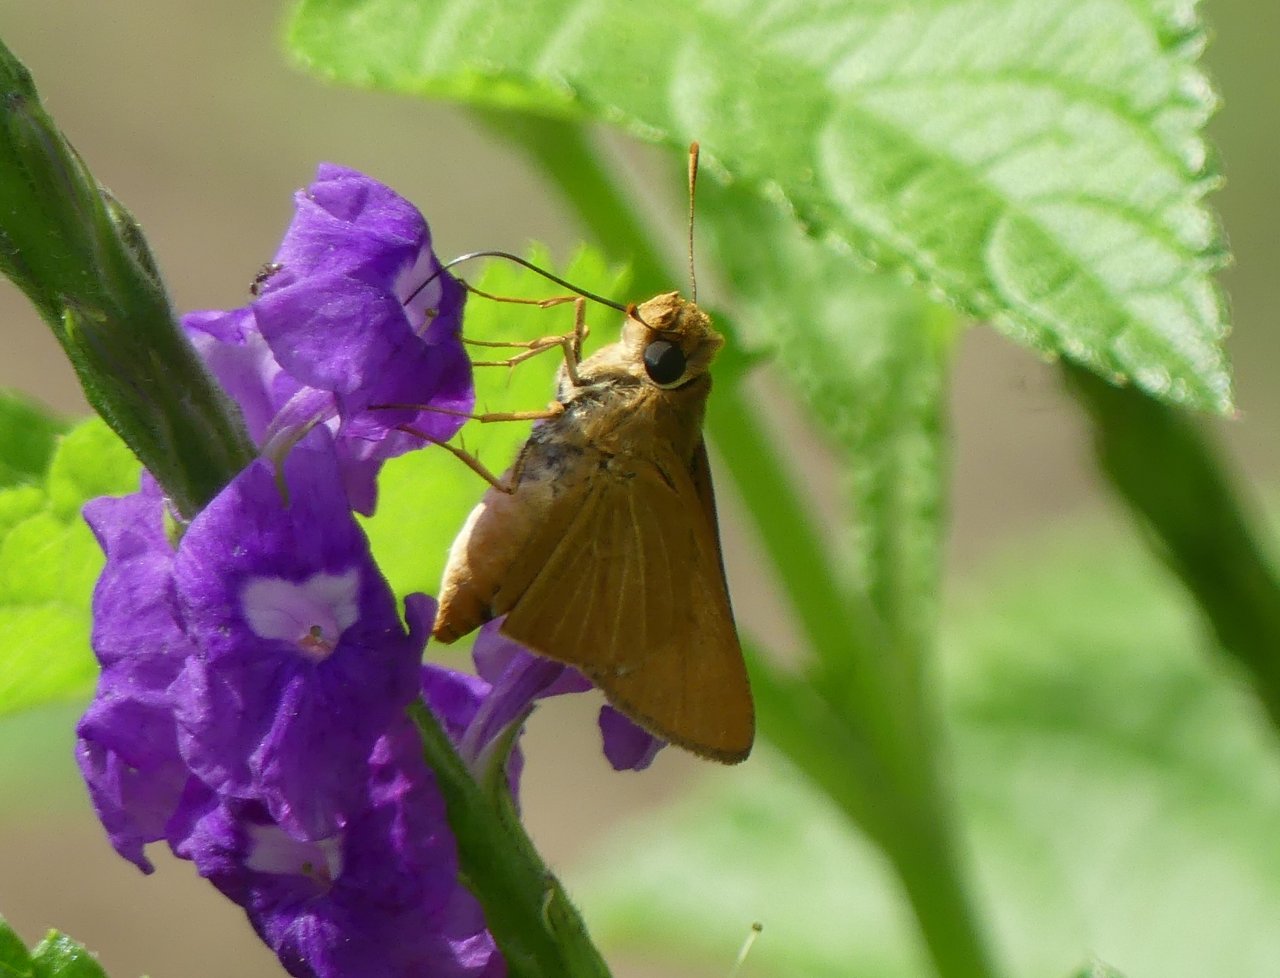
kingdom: Animalia
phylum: Arthropoda
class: Insecta
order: Lepidoptera
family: Hesperiidae
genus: Atrytone
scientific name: Atrytone Anatrytone mella
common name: Mella Skipper
